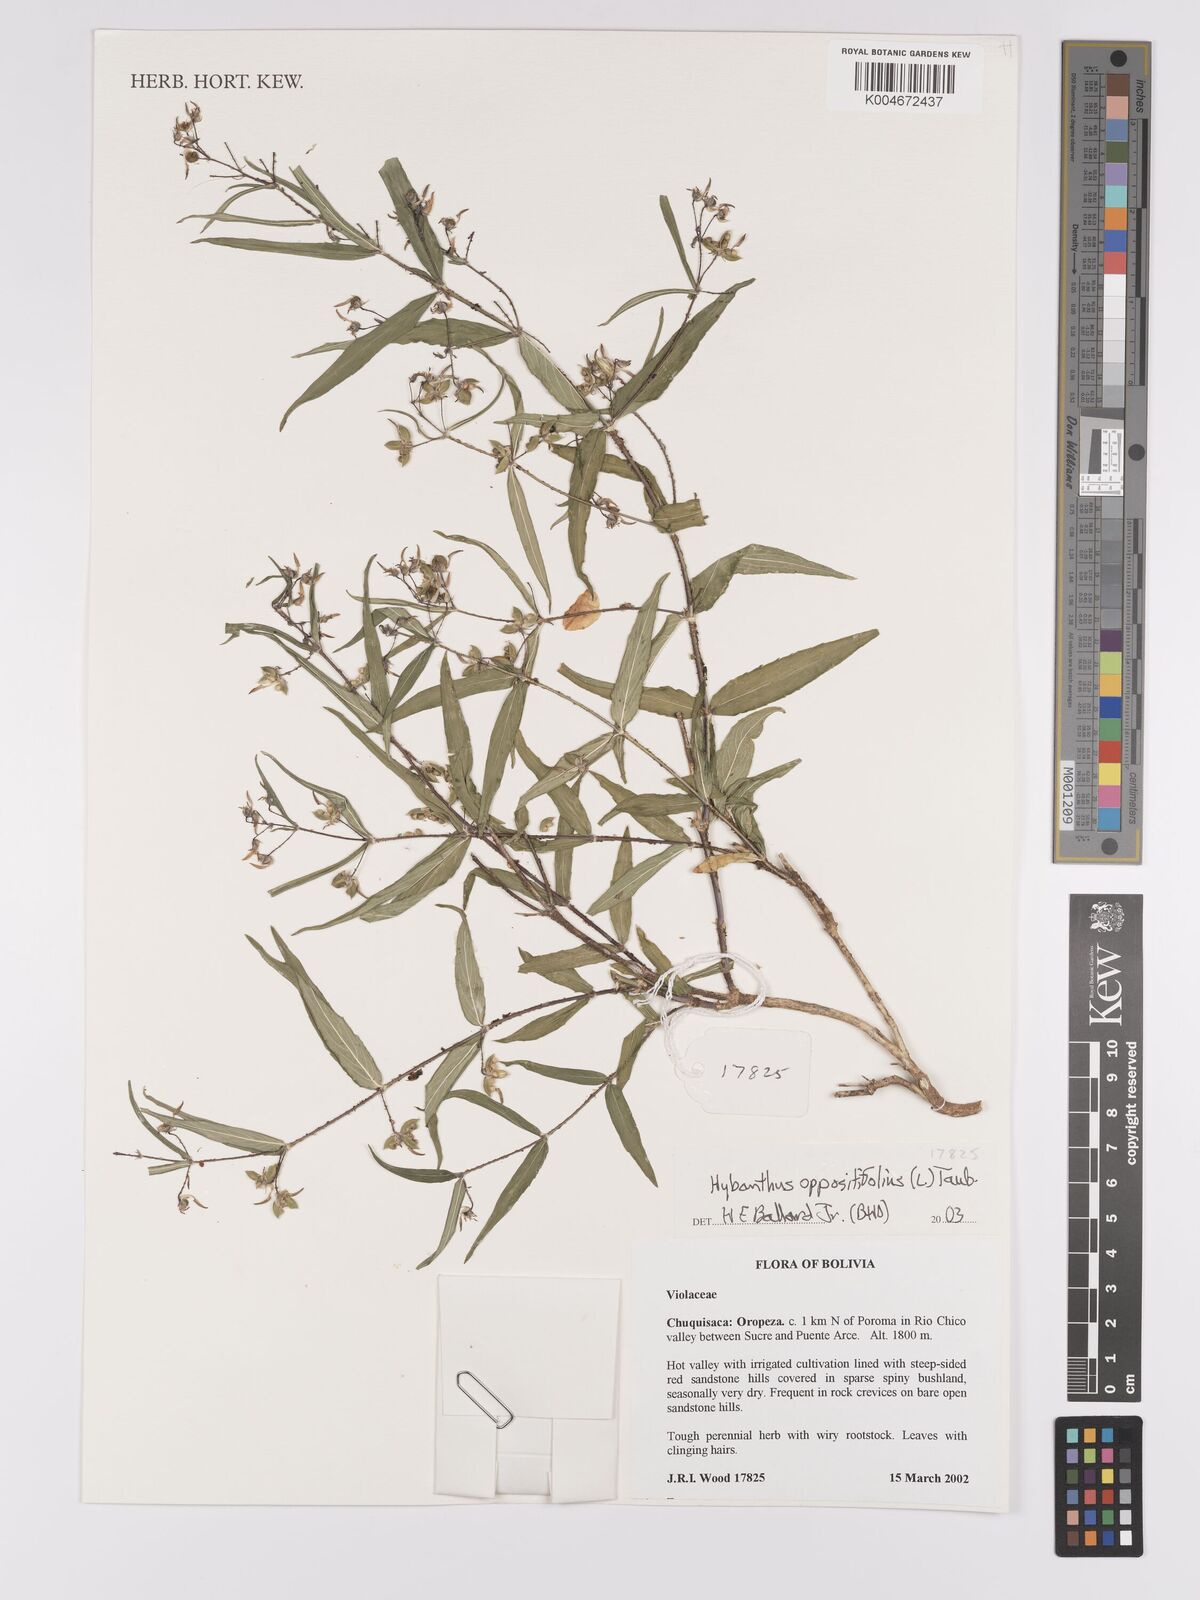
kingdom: Plantae
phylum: Tracheophyta
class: Magnoliopsida
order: Malpighiales
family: Violaceae
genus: Pombalia
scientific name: Pombalia oppositifolia
